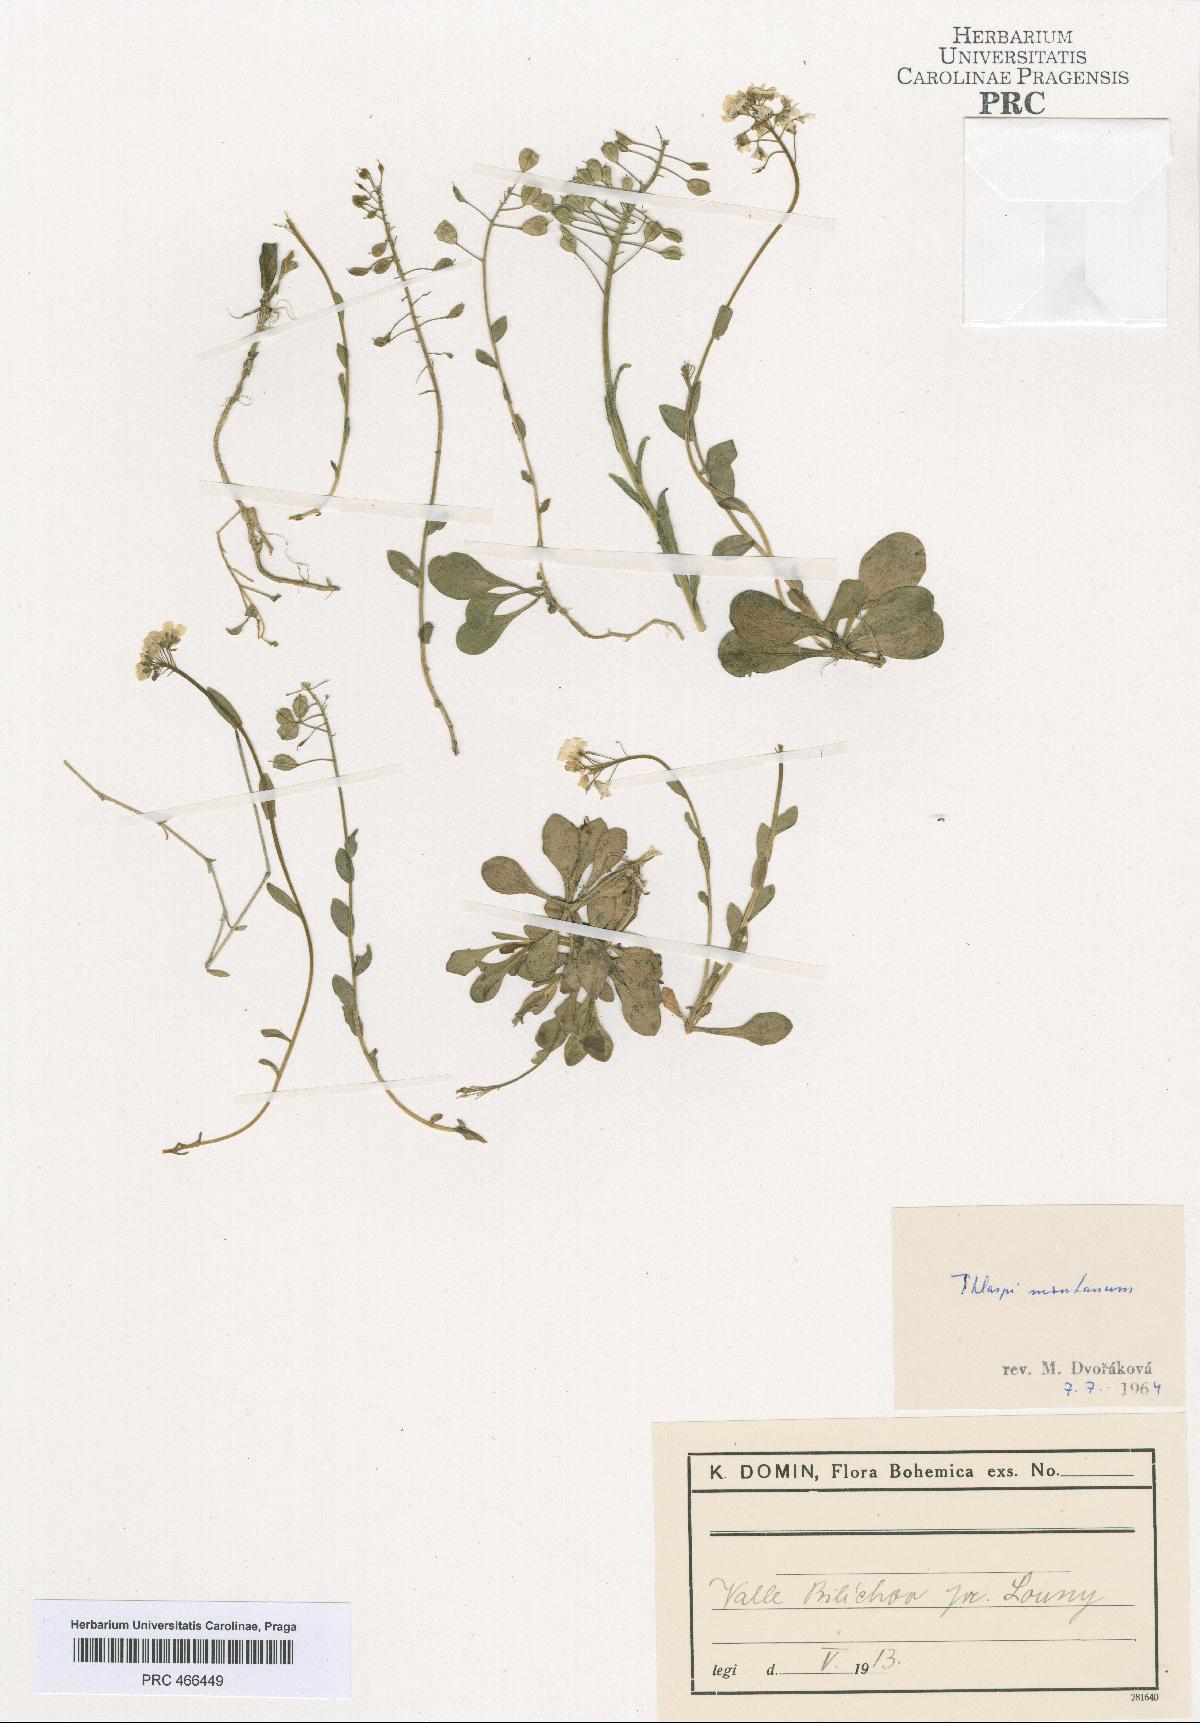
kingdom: Plantae
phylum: Tracheophyta
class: Magnoliopsida
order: Brassicales
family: Brassicaceae
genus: Noccaea
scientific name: Noccaea montana
